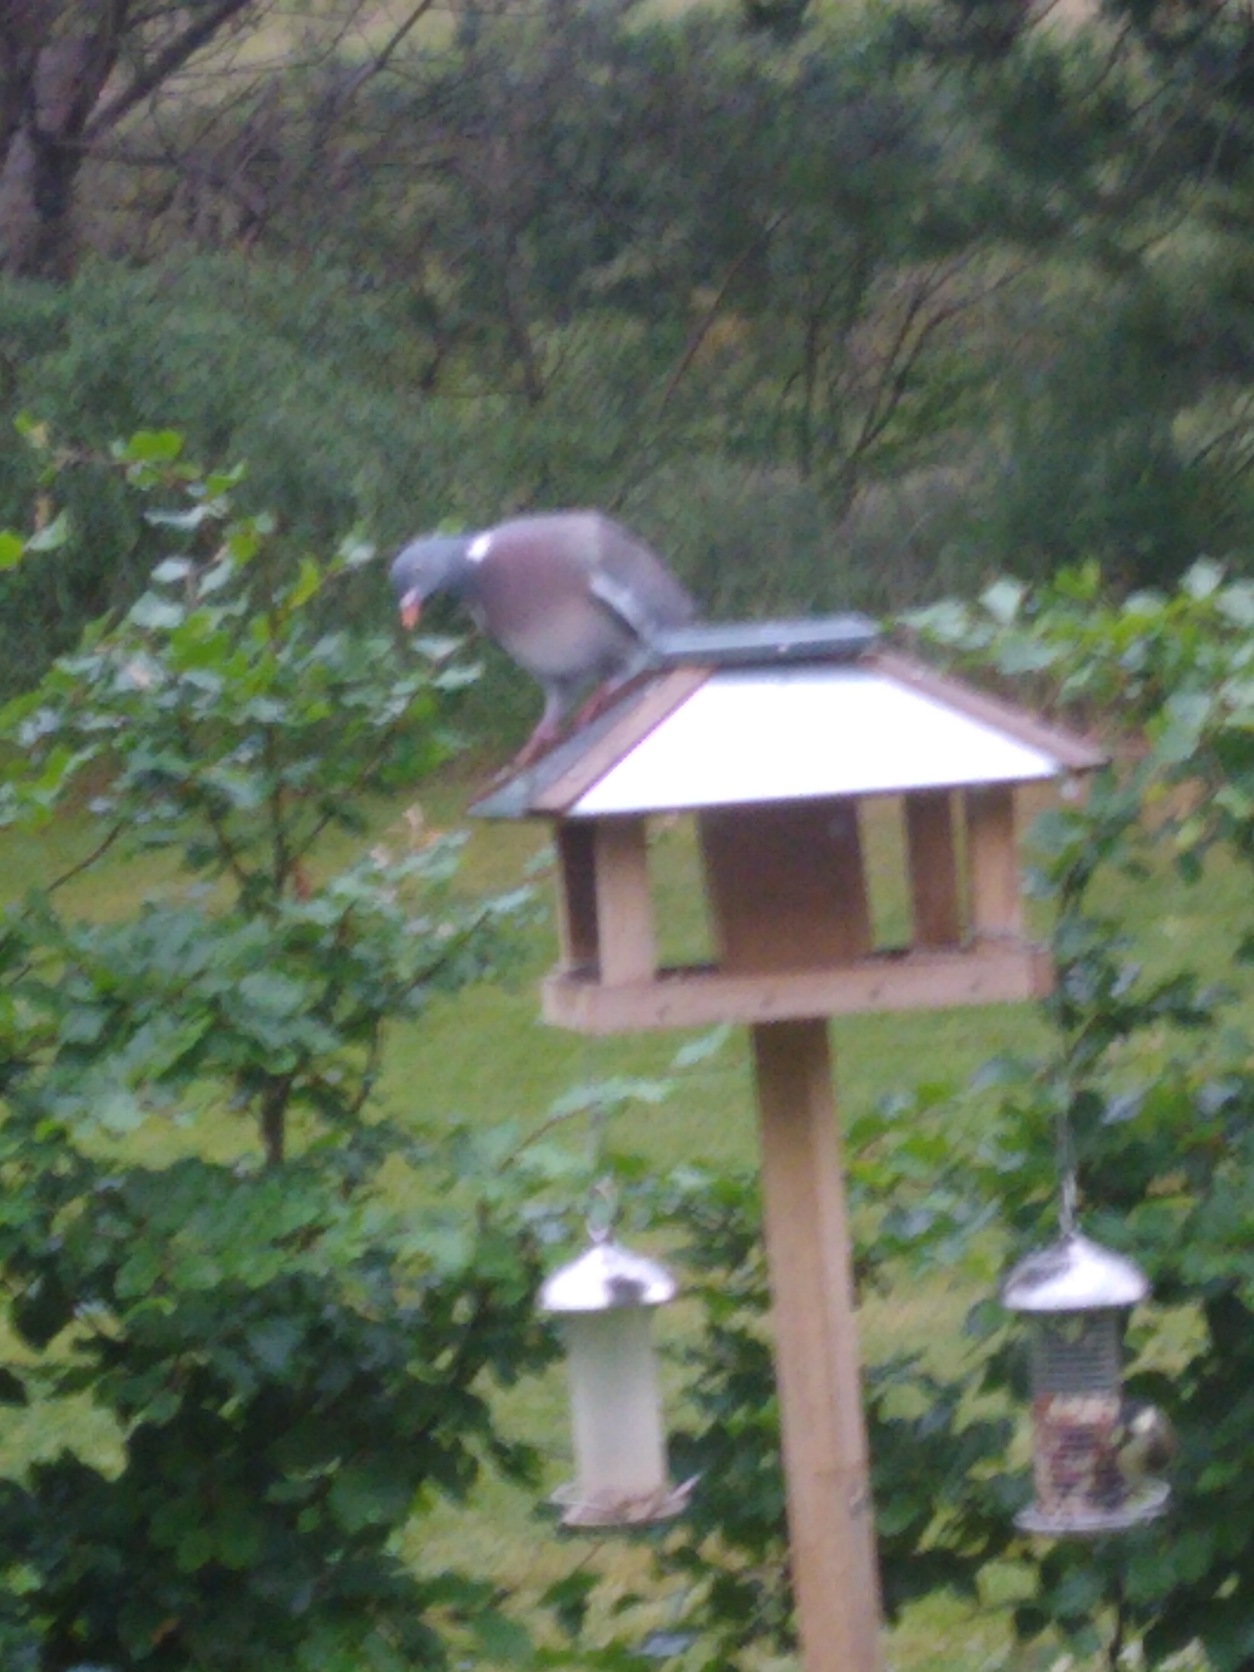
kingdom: Animalia
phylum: Chordata
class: Aves
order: Columbiformes
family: Columbidae
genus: Columba
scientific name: Columba palumbus
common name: Ringdue
